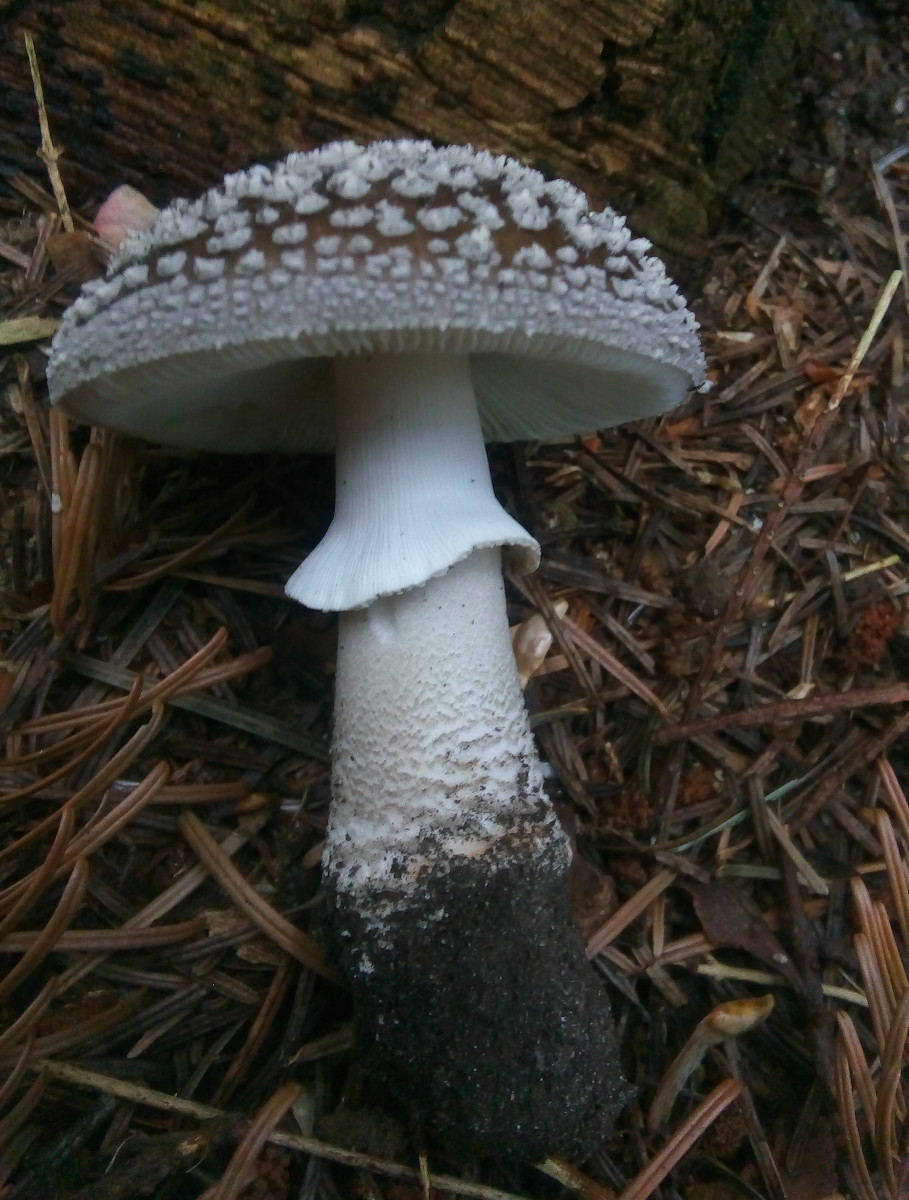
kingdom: Fungi
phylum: Basidiomycota
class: Agaricomycetes
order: Agaricales
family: Amanitaceae
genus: Amanita
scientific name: Amanita
